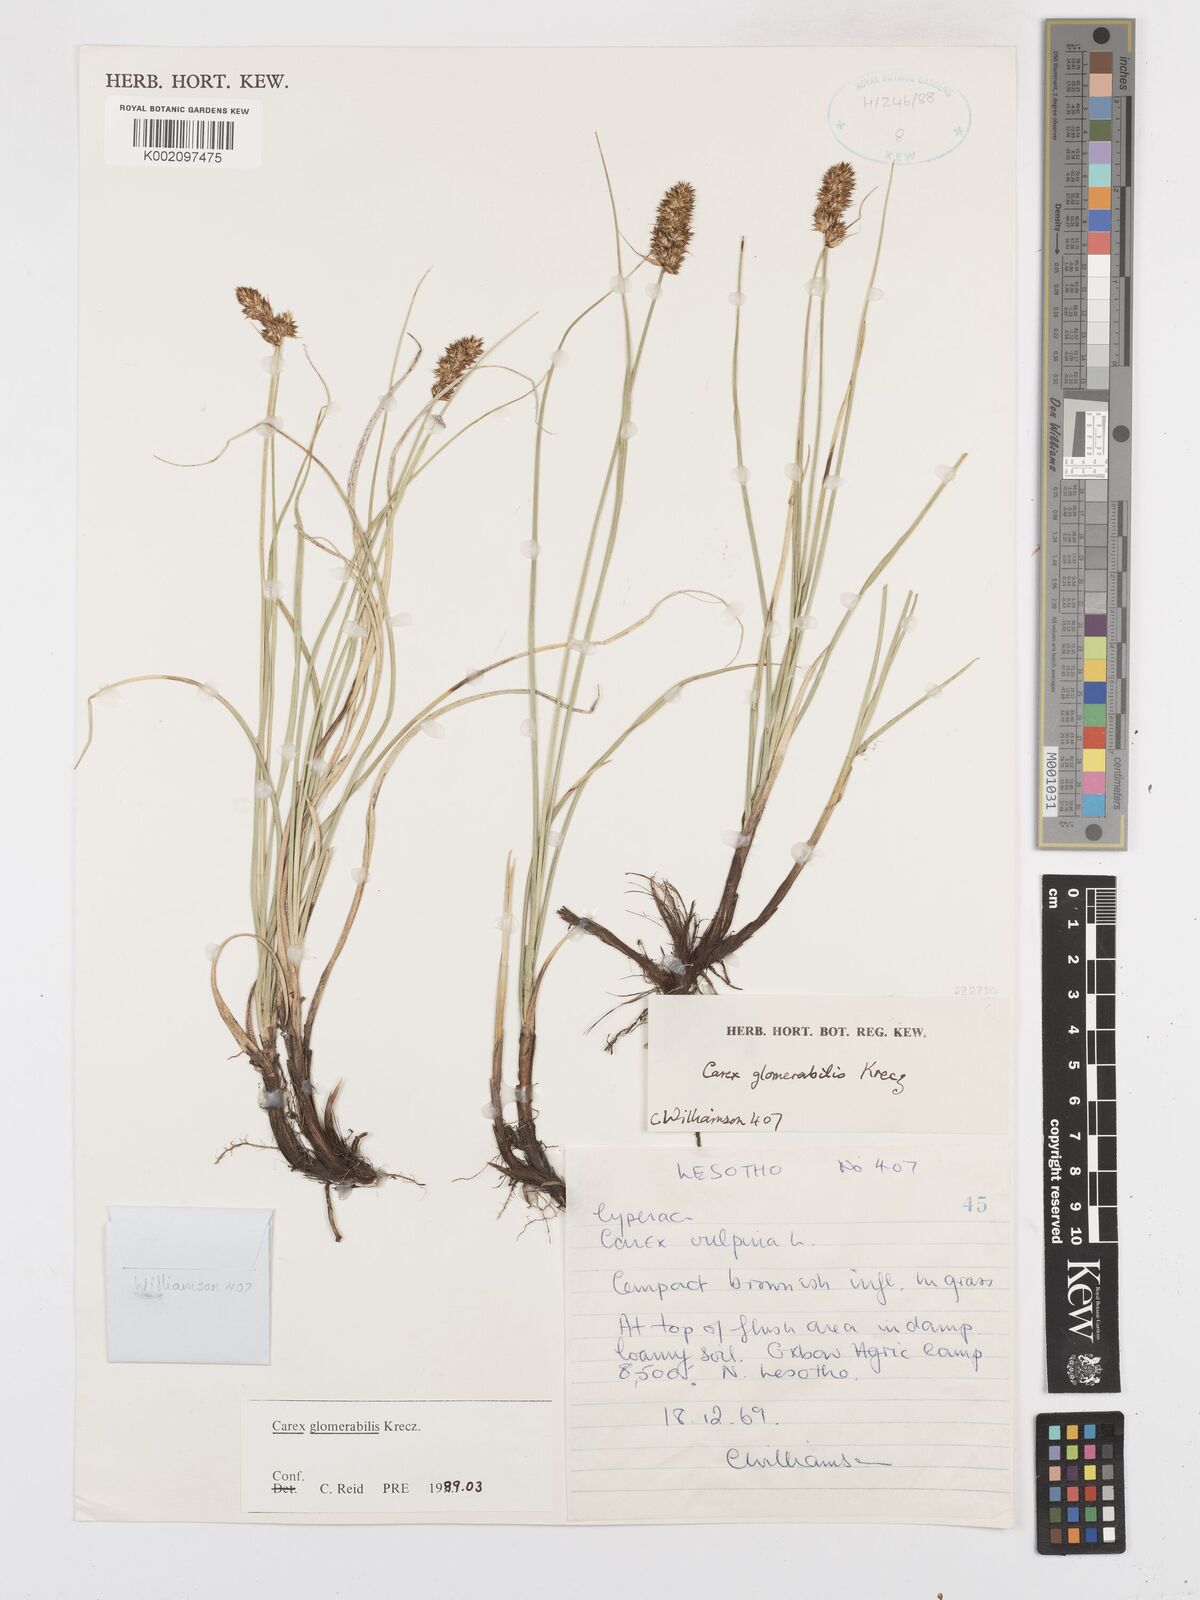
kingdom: Plantae
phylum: Tracheophyta
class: Liliopsida
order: Poales
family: Cyperaceae
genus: Carex
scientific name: Carex glomerata
